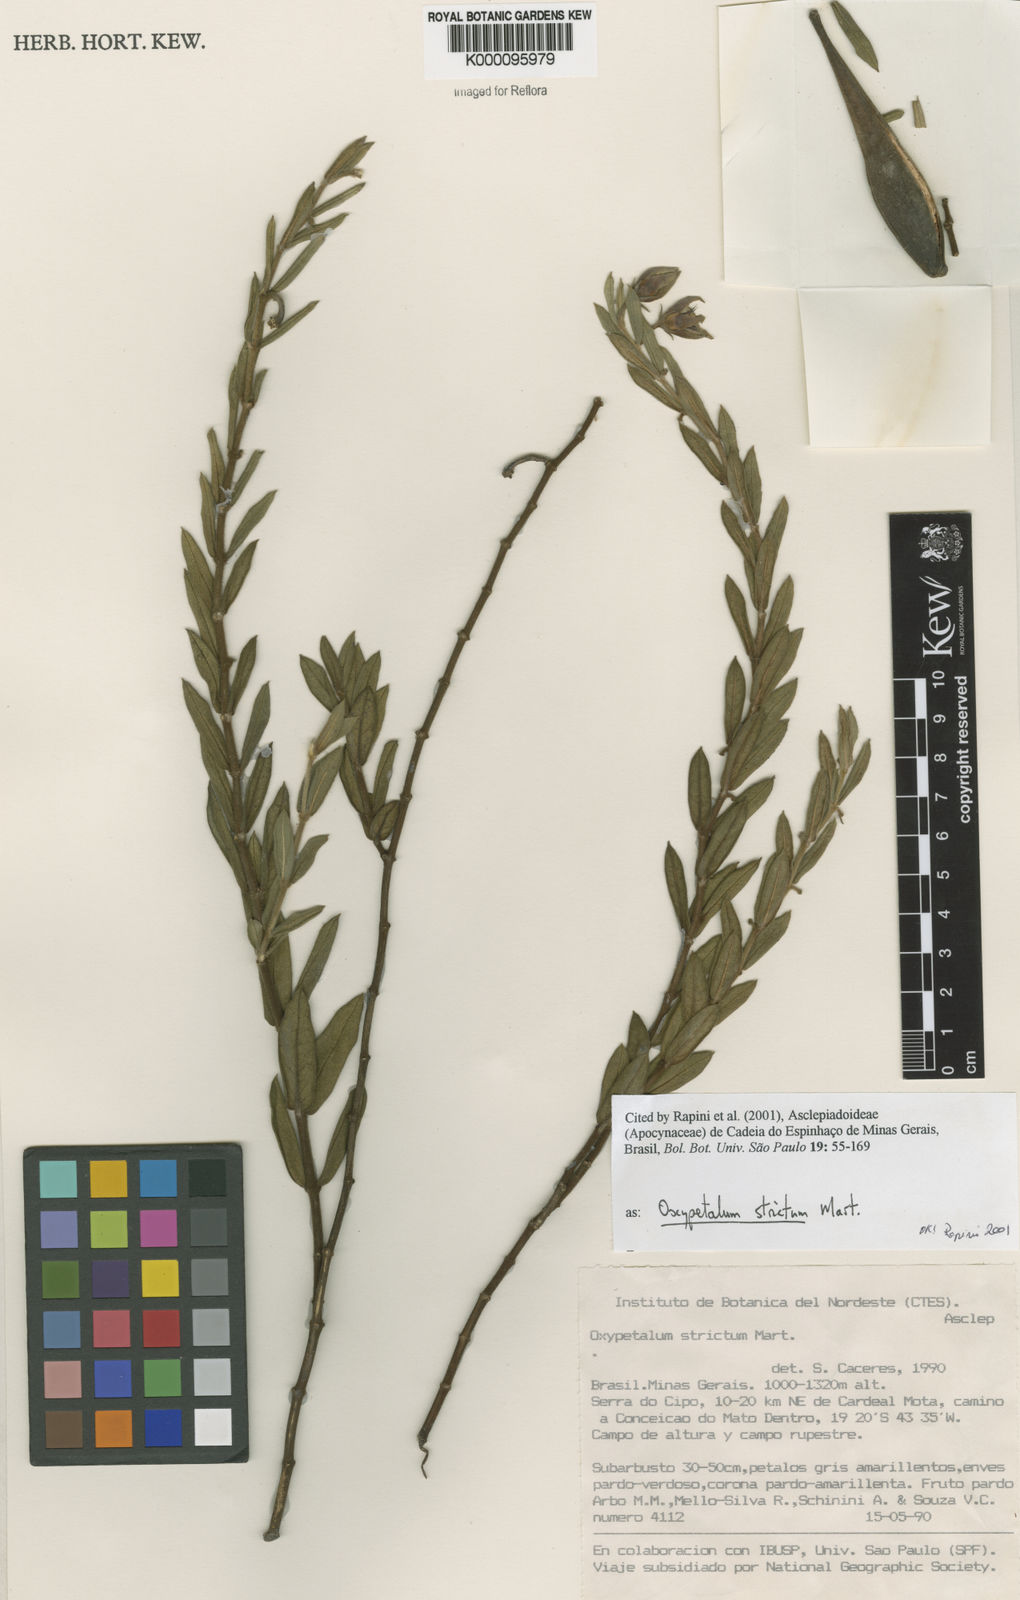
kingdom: Plantae
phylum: Tracheophyta
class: Magnoliopsida
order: Gentianales
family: Apocynaceae
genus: Oxypetalum
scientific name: Oxypetalum strictum
